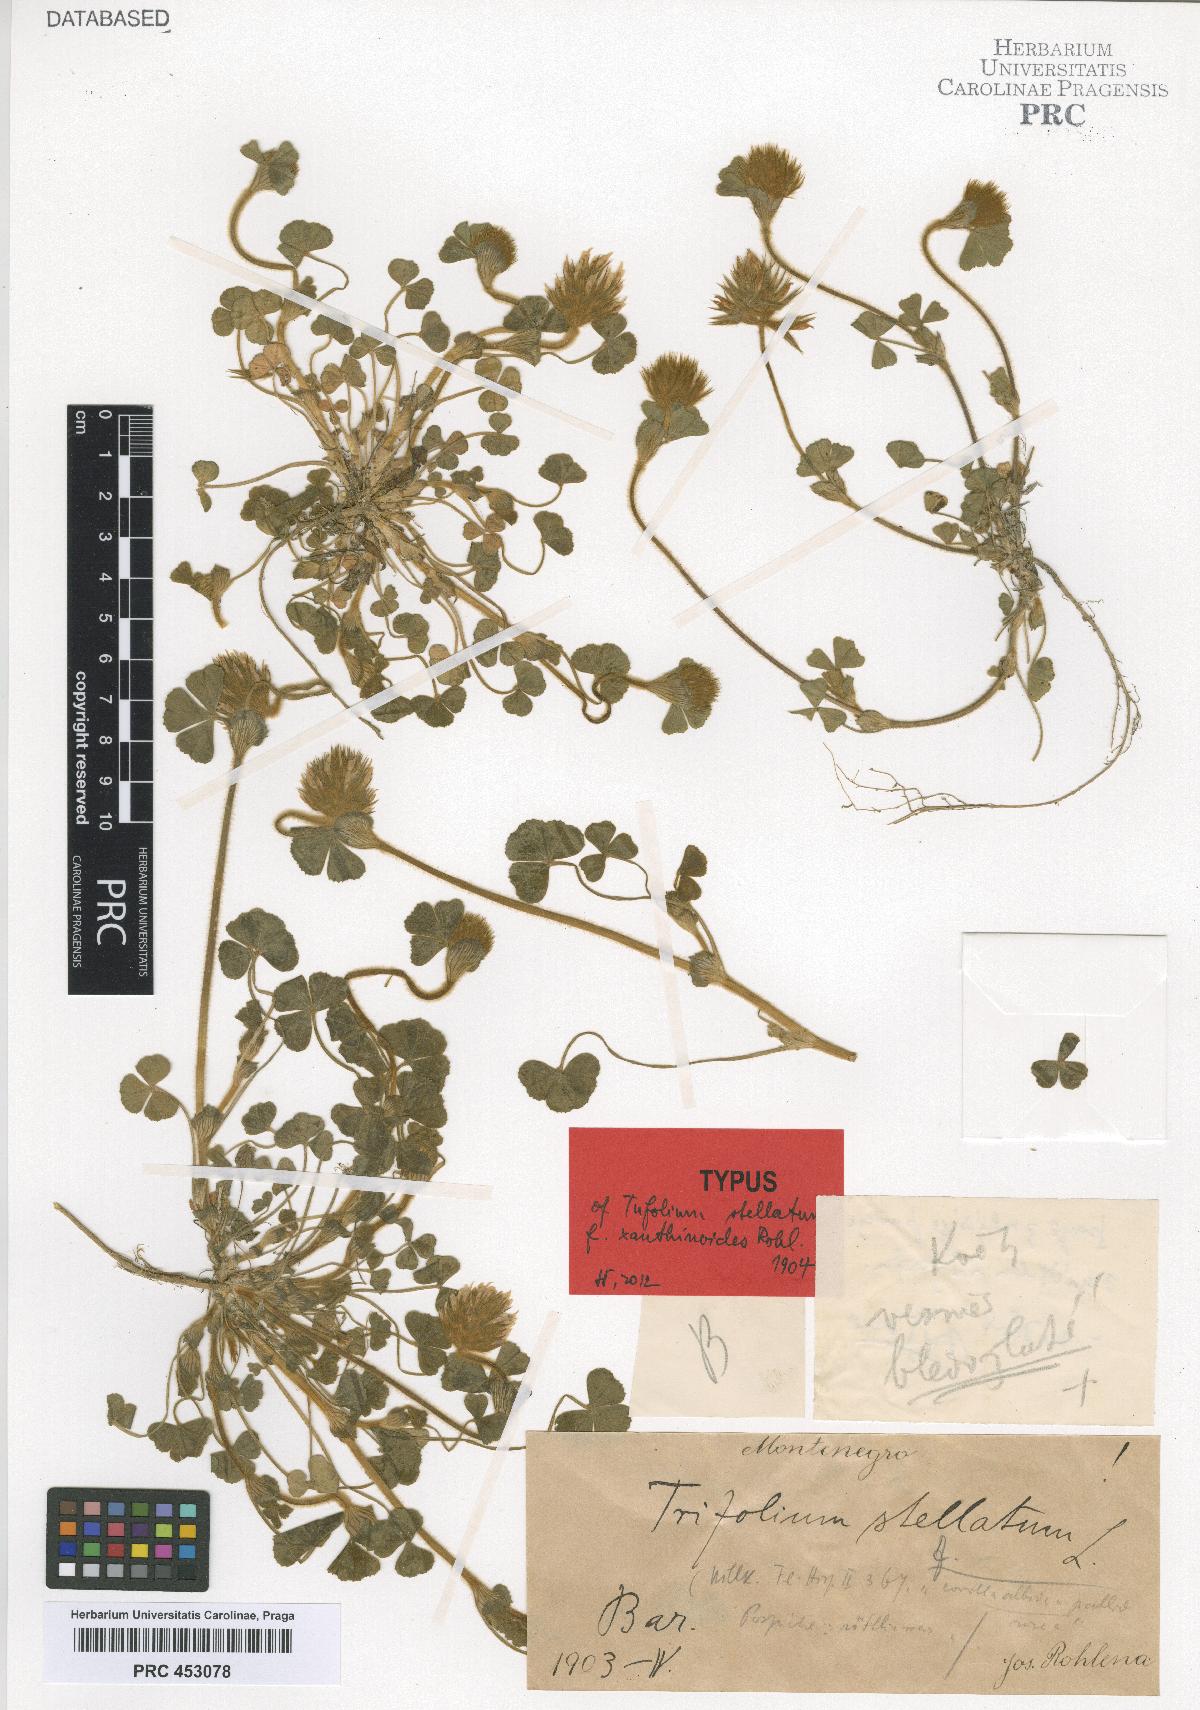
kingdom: Plantae
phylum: Tracheophyta
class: Magnoliopsida
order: Fabales
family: Fabaceae
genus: Trifolium
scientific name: Trifolium stellatum
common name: Starry clover
